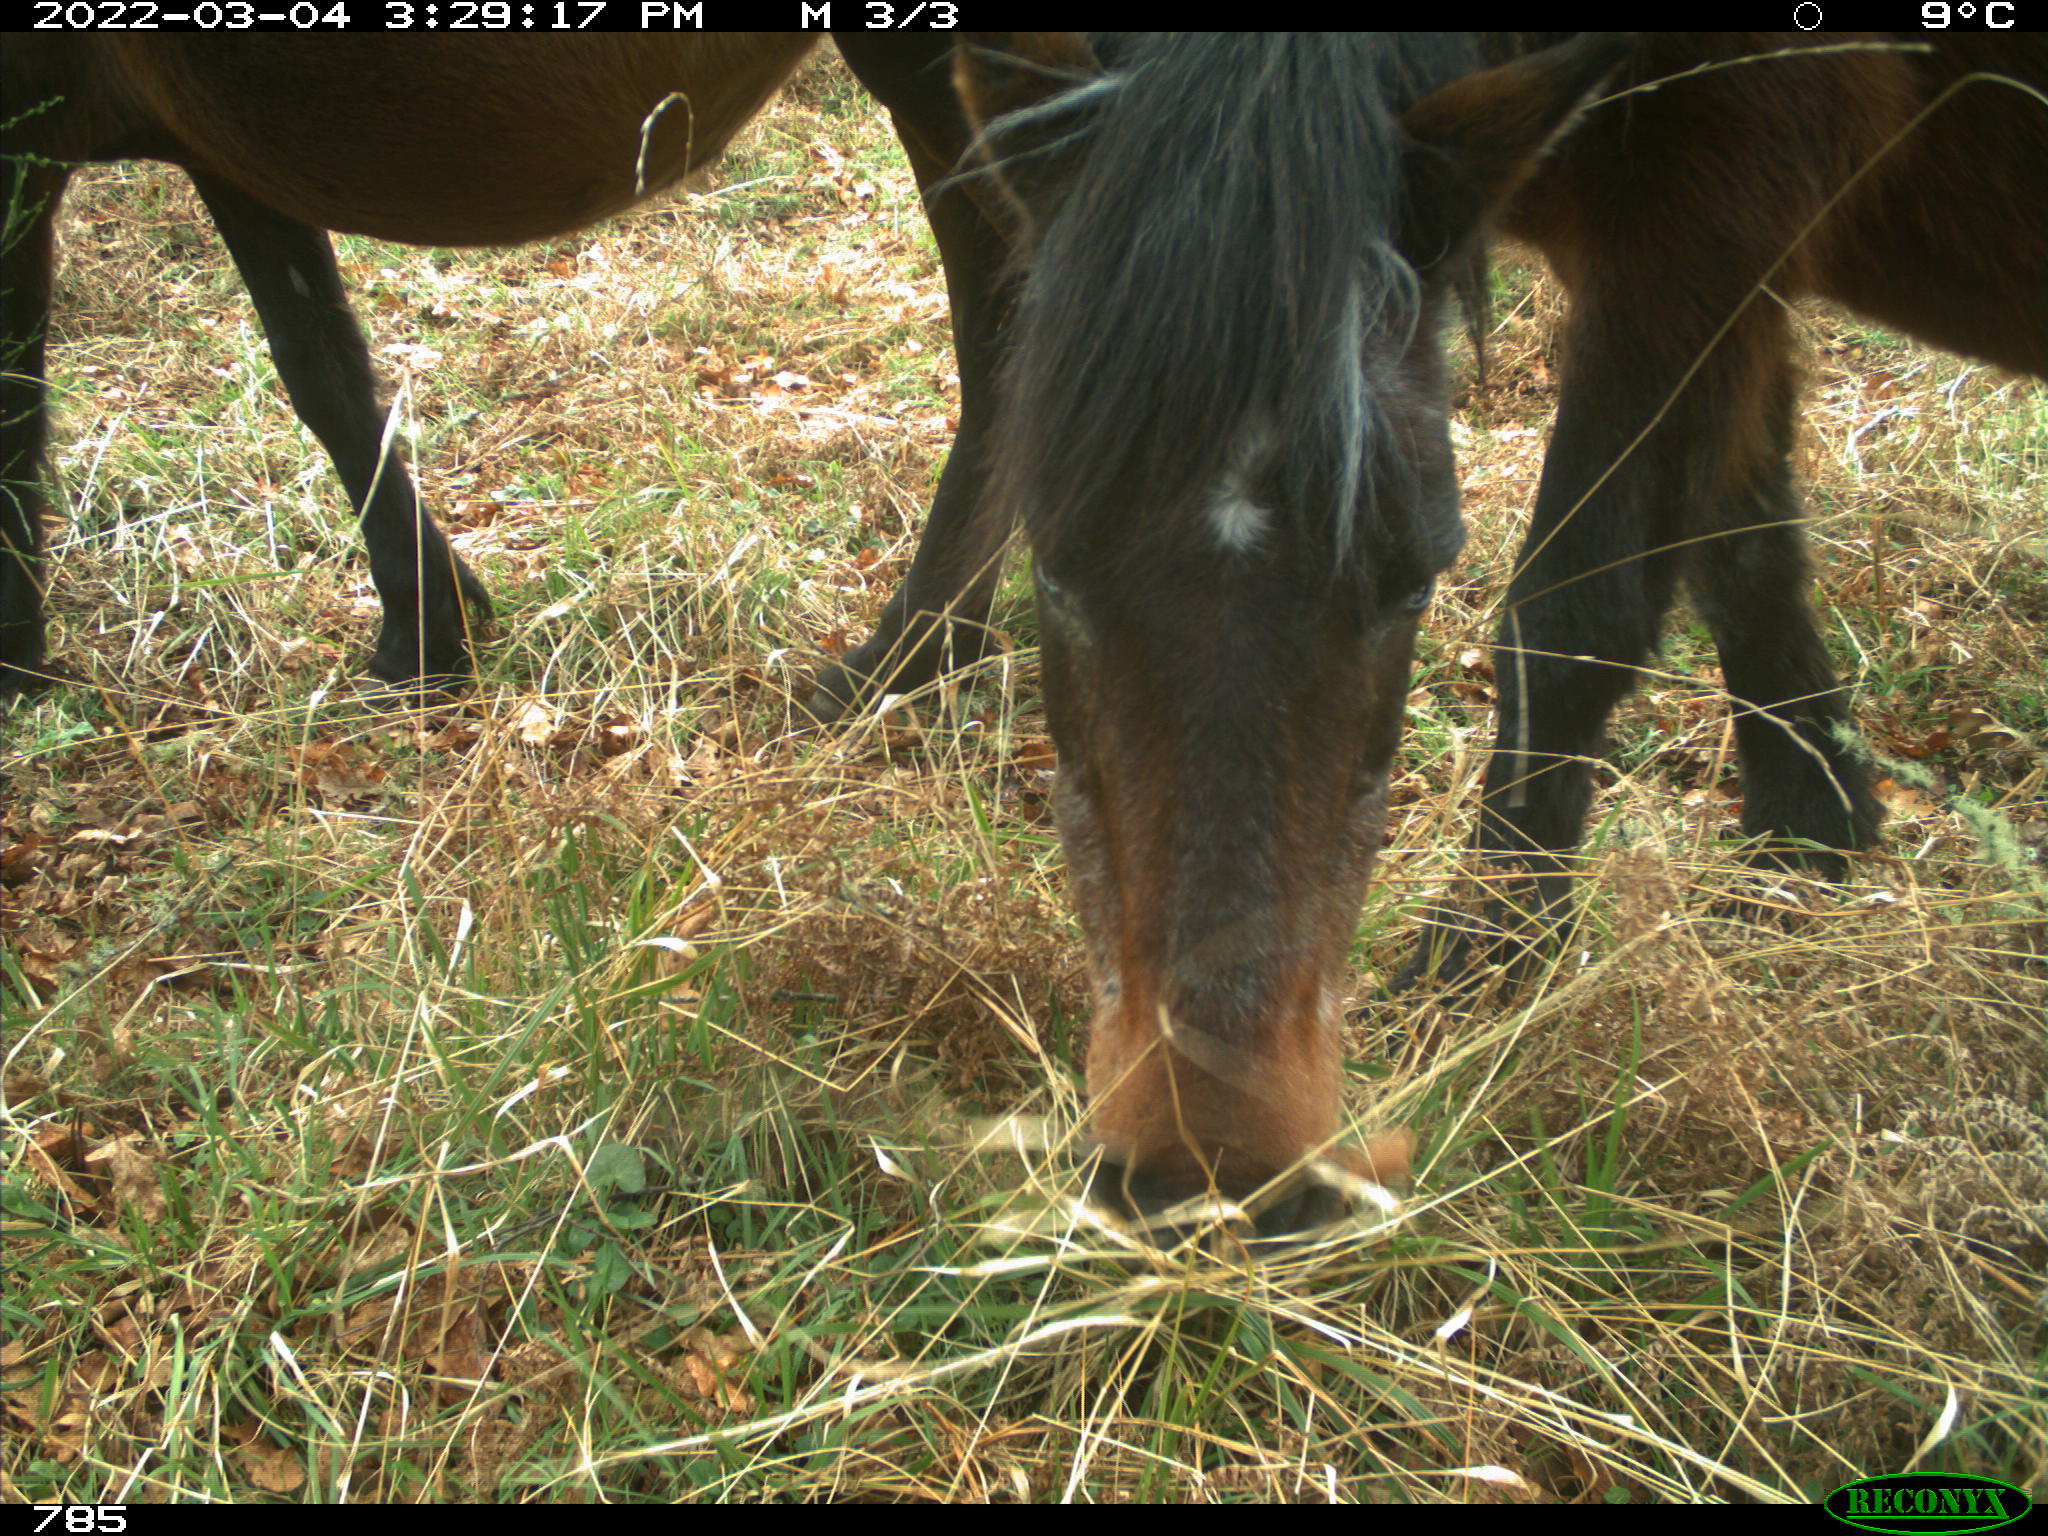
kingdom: Animalia
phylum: Chordata
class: Mammalia
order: Perissodactyla
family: Equidae
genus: Equus
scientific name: Equus caballus
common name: Horse
